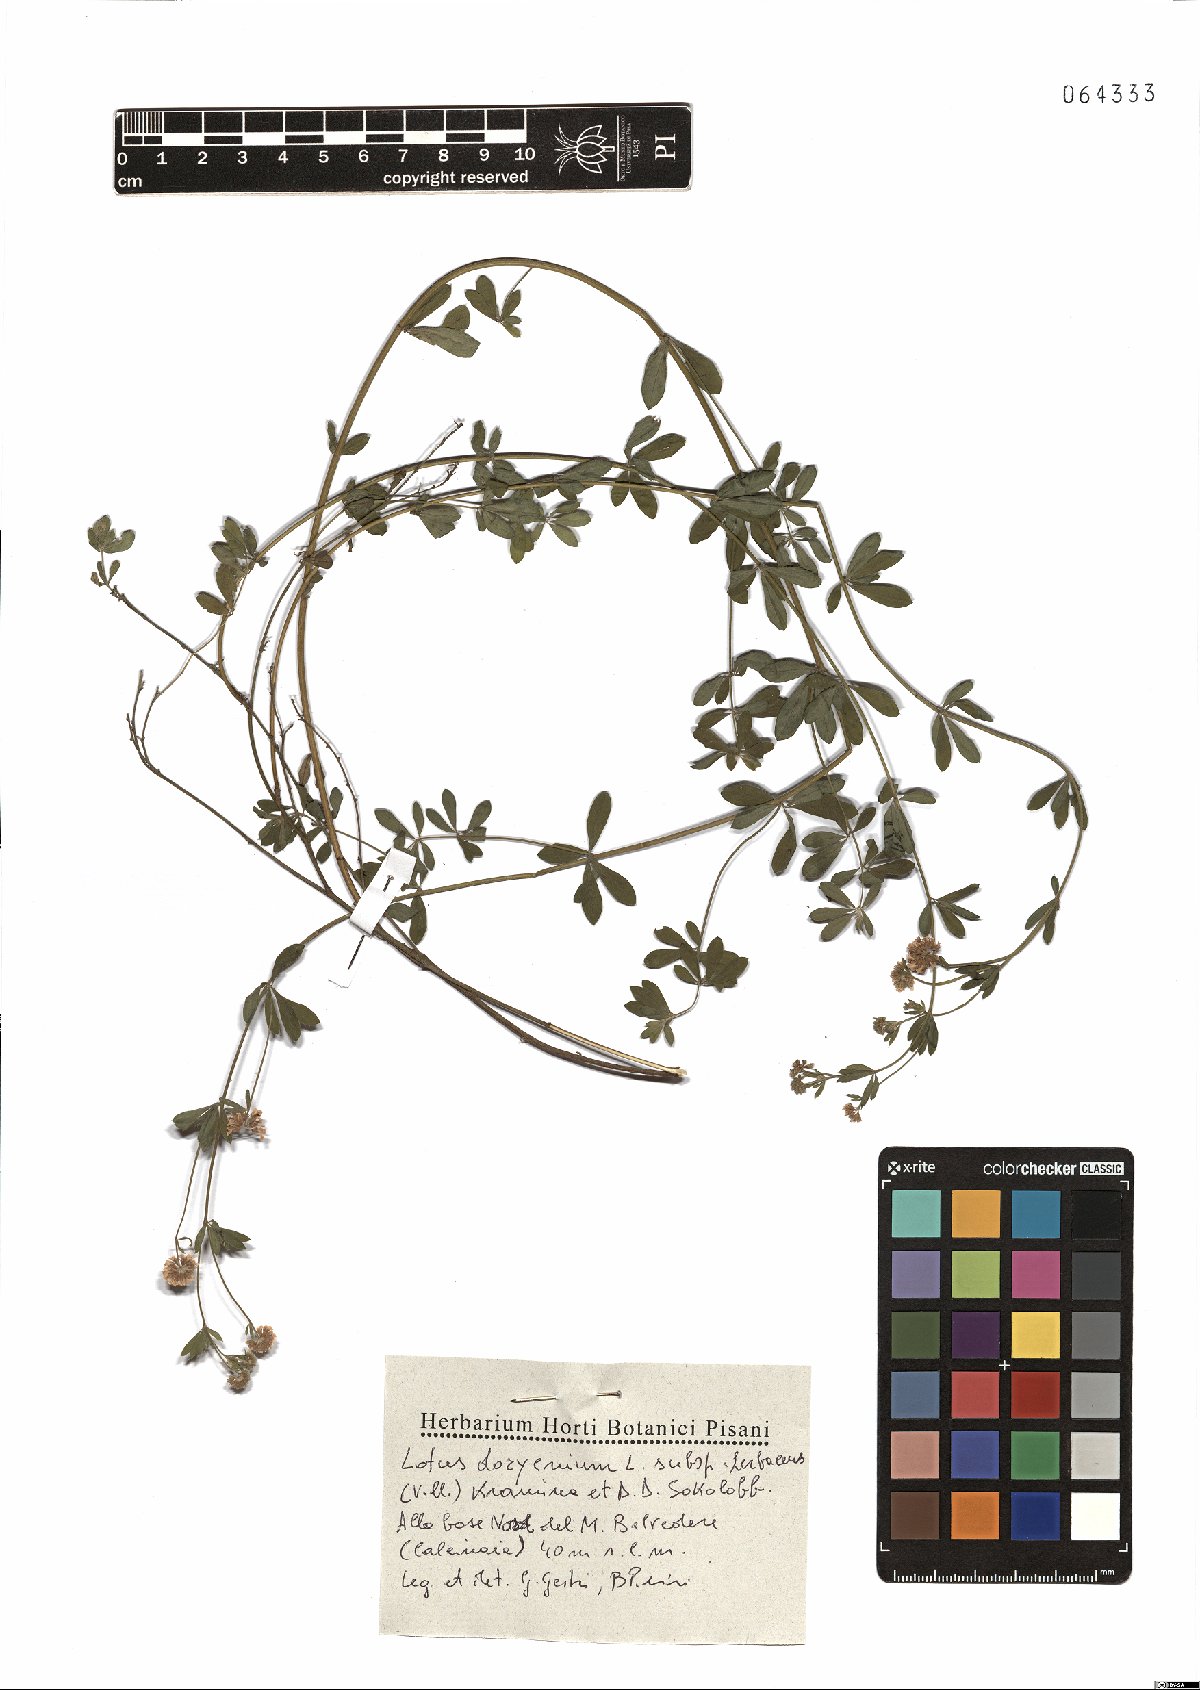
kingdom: Plantae
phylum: Tracheophyta
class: Magnoliopsida
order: Fabales
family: Fabaceae
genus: Lotus
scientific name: Lotus dorycnium
